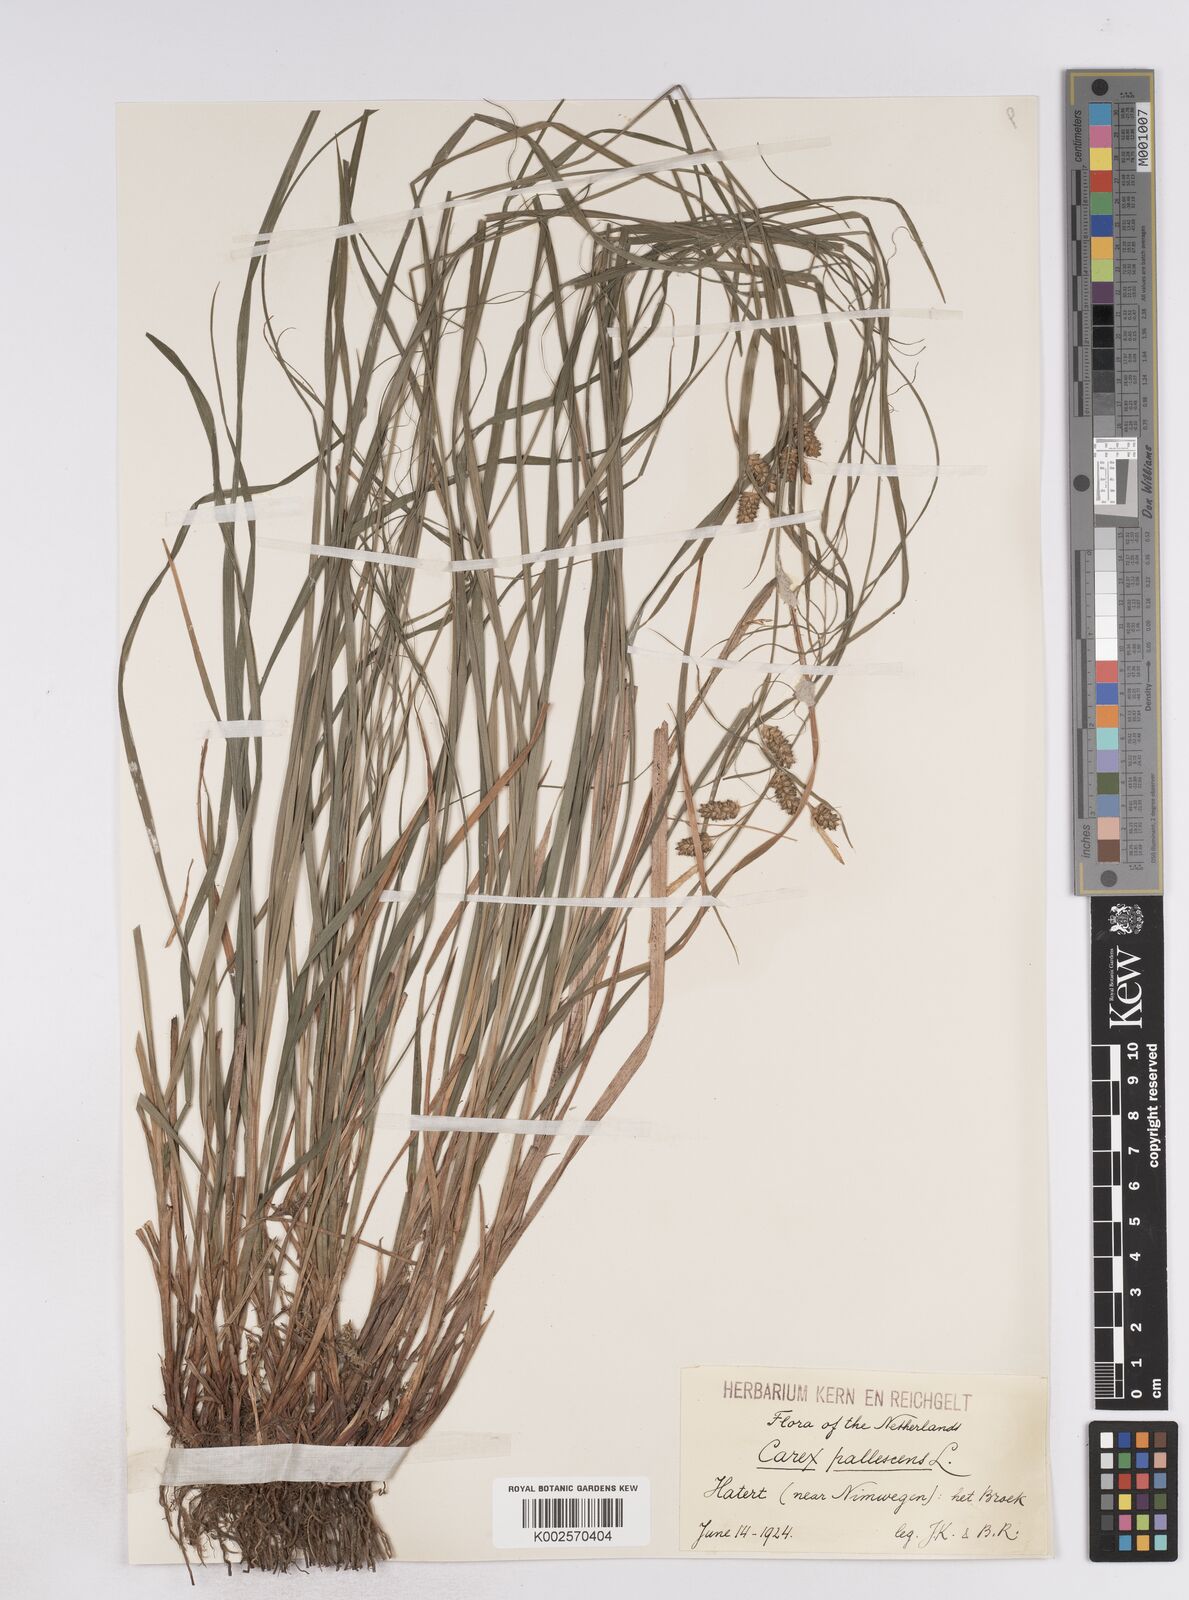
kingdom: Plantae
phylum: Tracheophyta
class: Liliopsida
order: Poales
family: Cyperaceae
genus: Carex
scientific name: Carex pallescens
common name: Pale sedge
